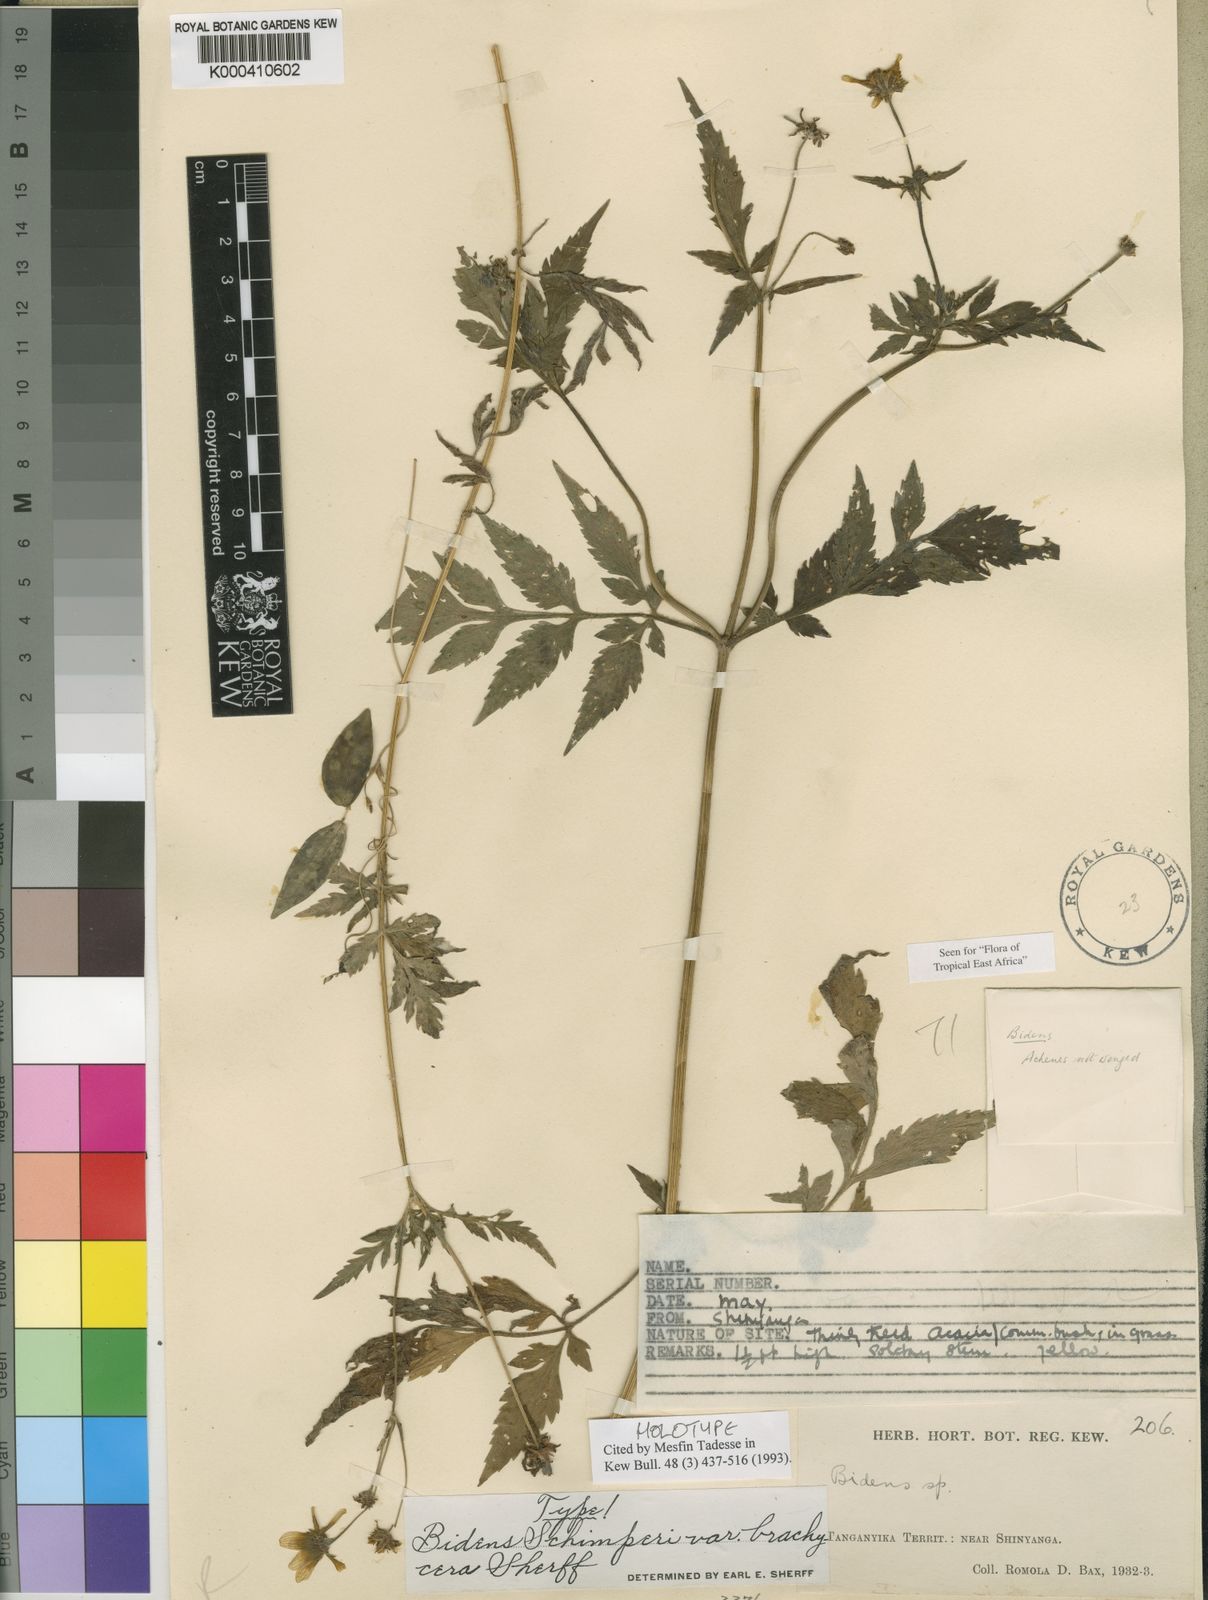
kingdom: Plantae
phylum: Tracheophyta
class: Magnoliopsida
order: Asterales
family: Asteraceae
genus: Bidens
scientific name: Bidens schimperi
